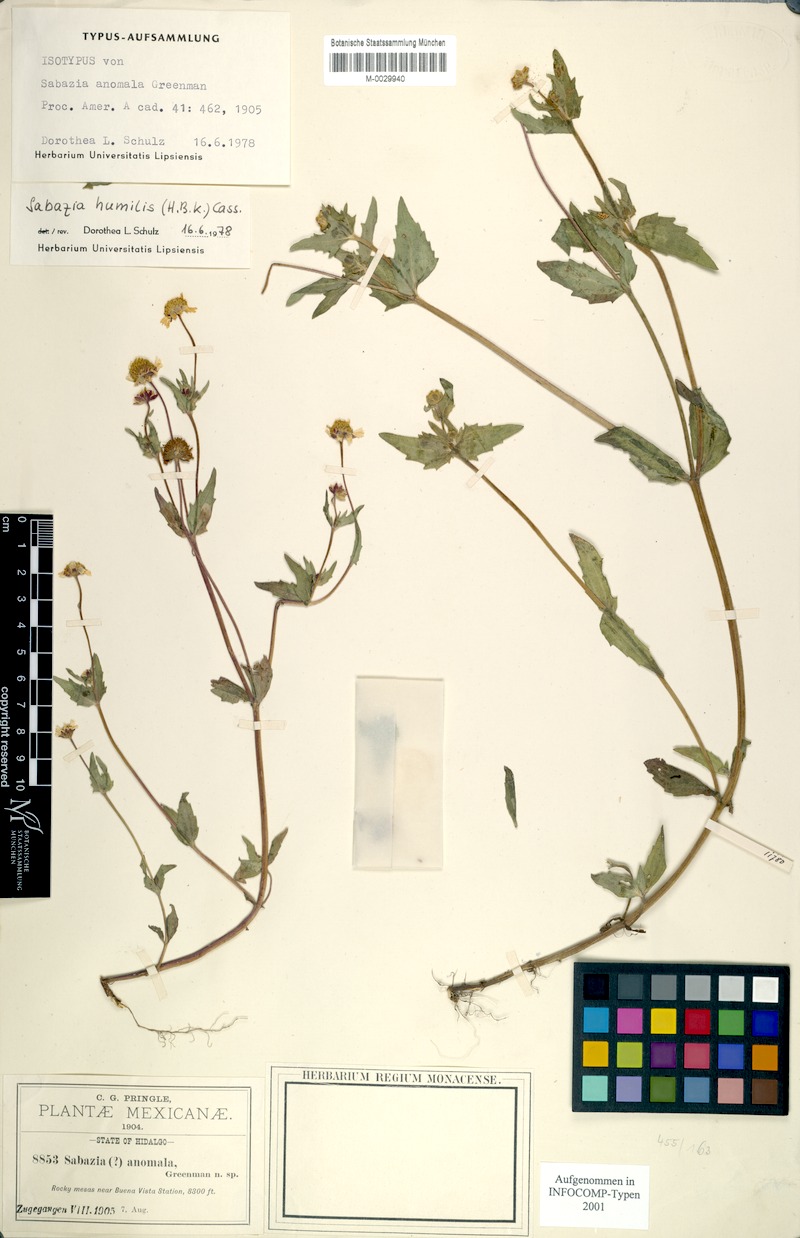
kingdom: Plantae
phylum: Tracheophyta
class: Magnoliopsida
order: Asterales
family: Asteraceae
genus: Sabazia
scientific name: Sabazia humilis
